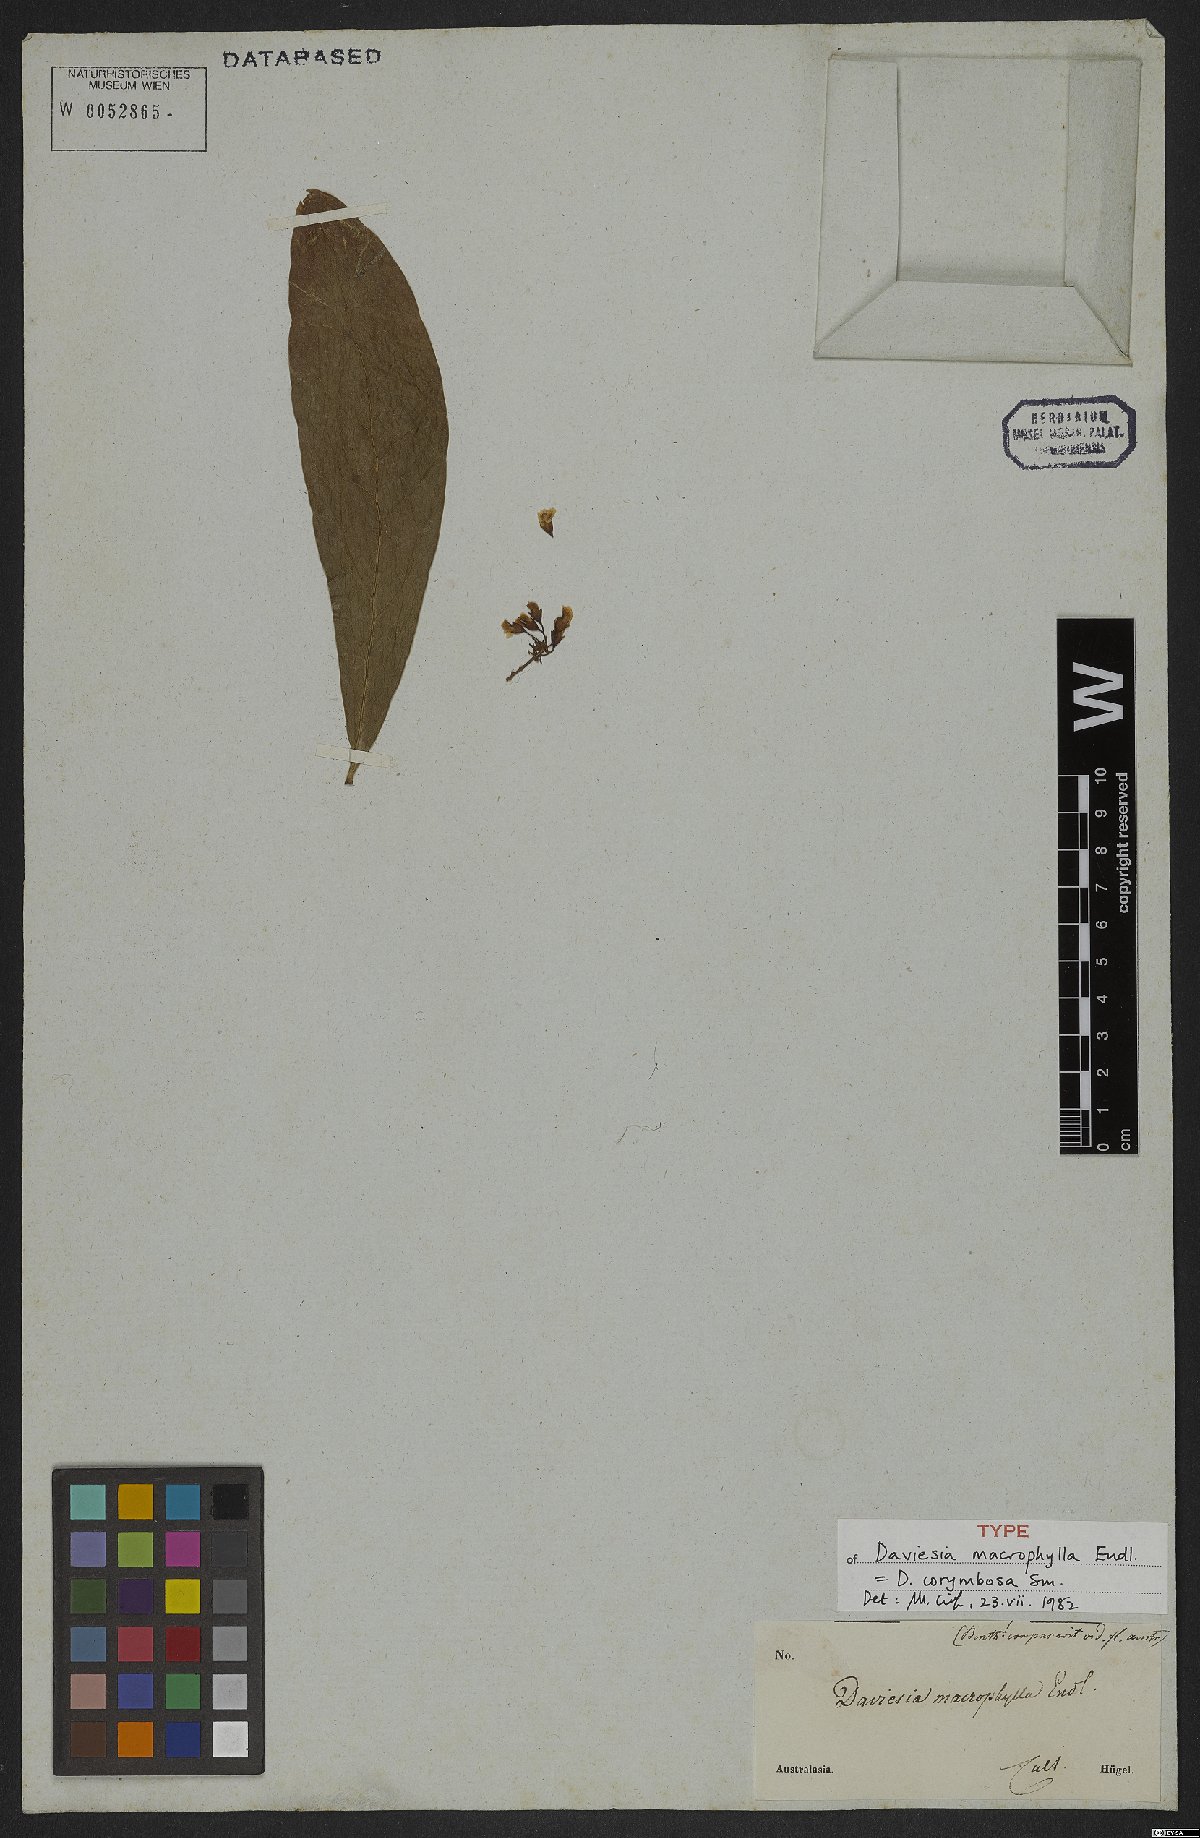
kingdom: Plantae
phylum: Tracheophyta
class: Magnoliopsida
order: Fabales
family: Fabaceae
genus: Daviesia
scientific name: Daviesia corymbosa
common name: Narrow-leaf bitter-pea
